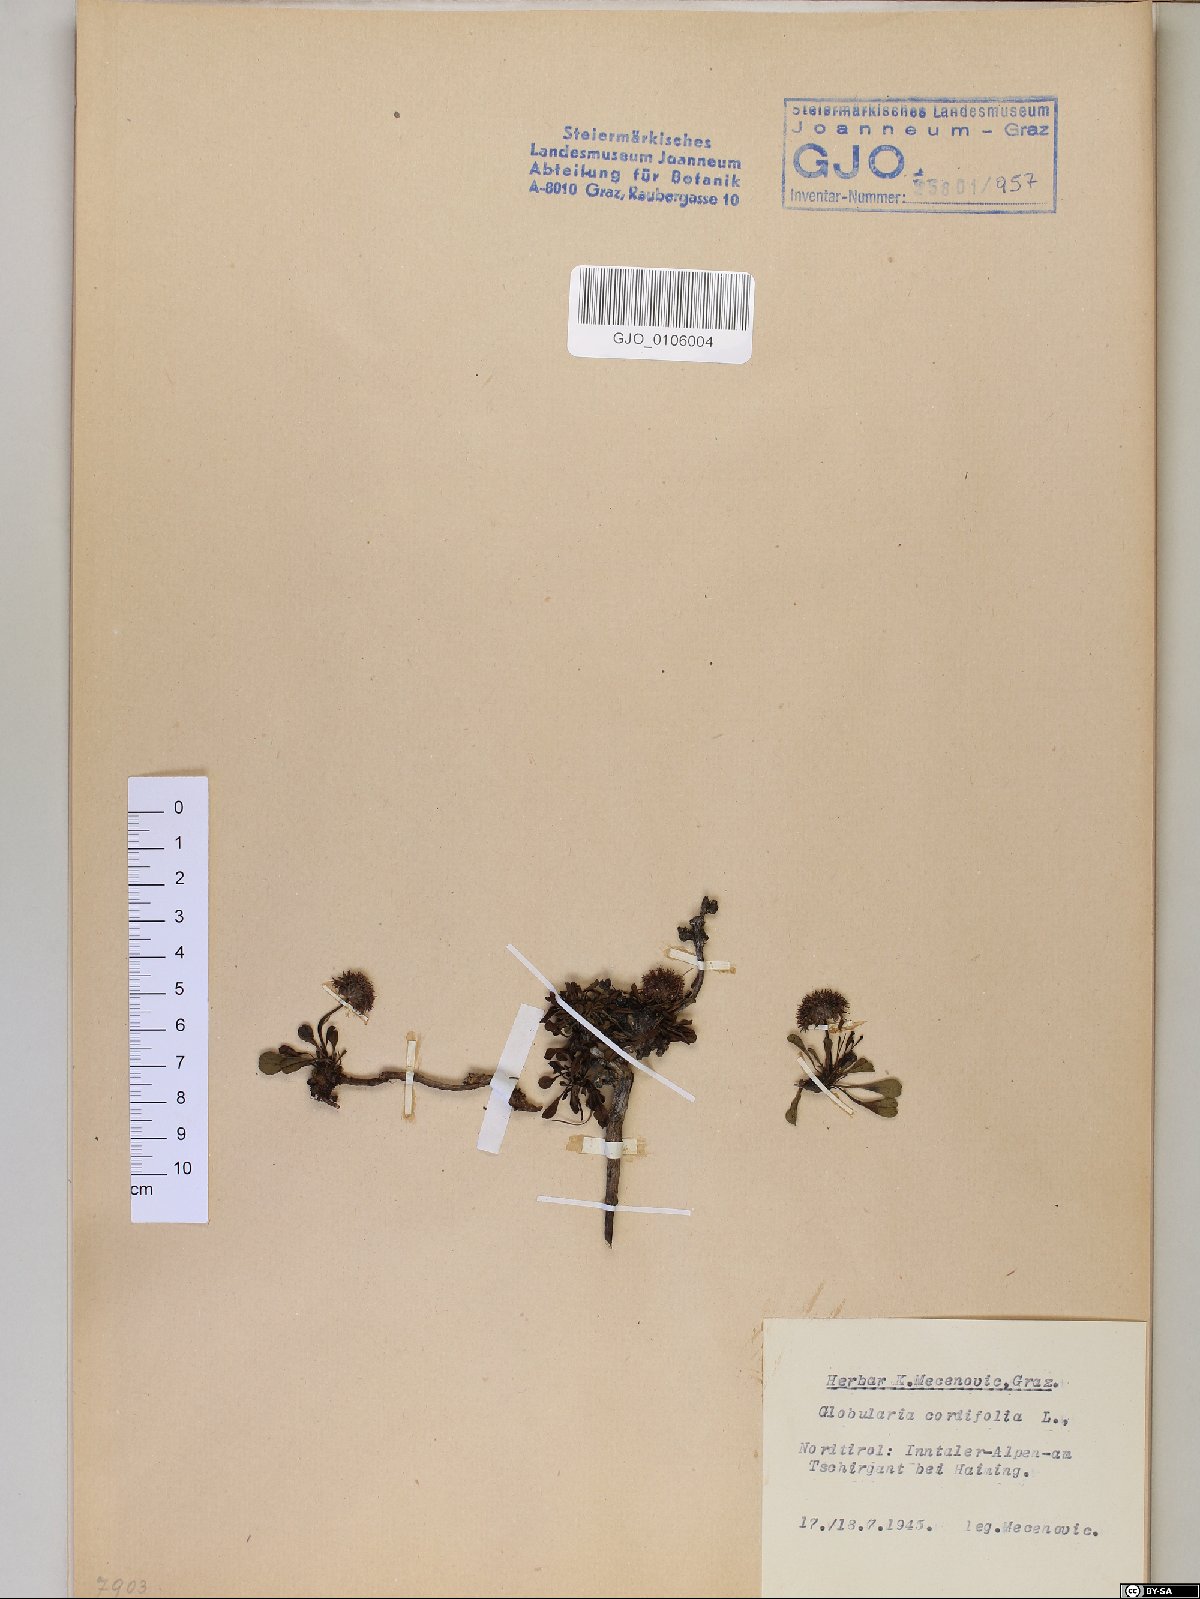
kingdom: Plantae
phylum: Tracheophyta
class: Magnoliopsida
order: Lamiales
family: Plantaginaceae
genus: Globularia
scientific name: Globularia cordifolia
